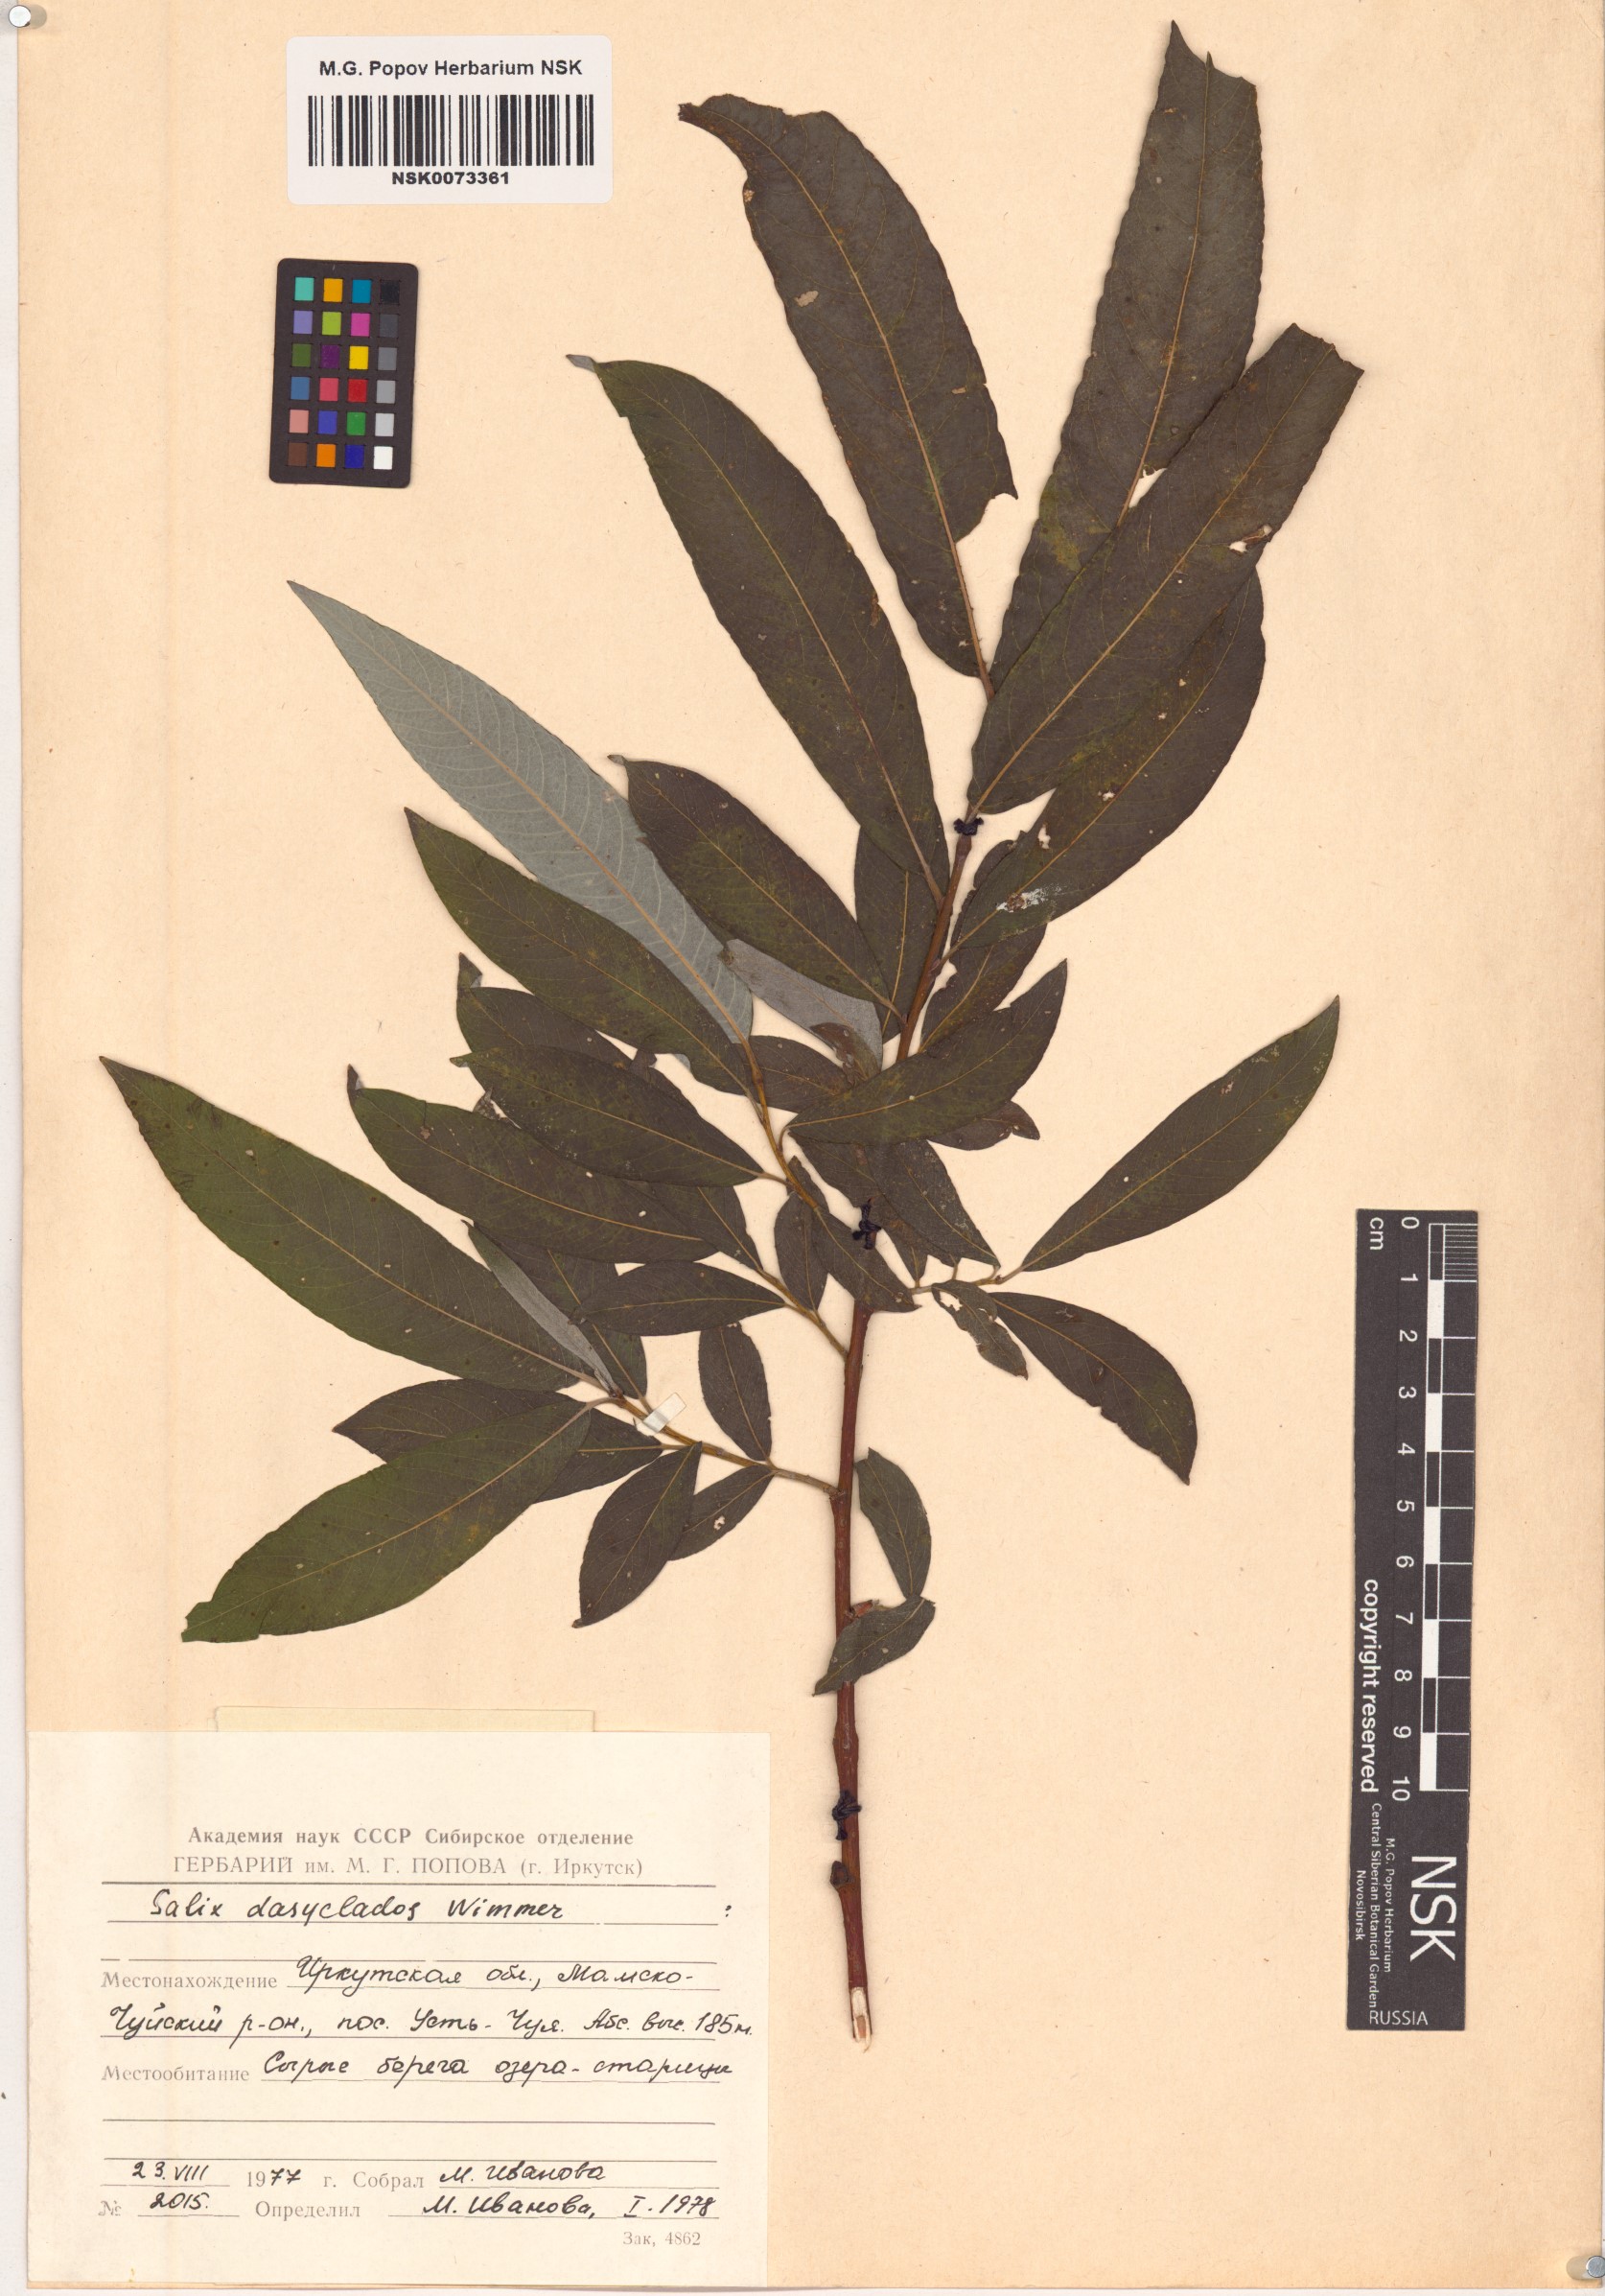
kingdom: Plantae
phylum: Tracheophyta
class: Magnoliopsida
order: Malpighiales
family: Salicaceae
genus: Salix
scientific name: Salix gmelinii
